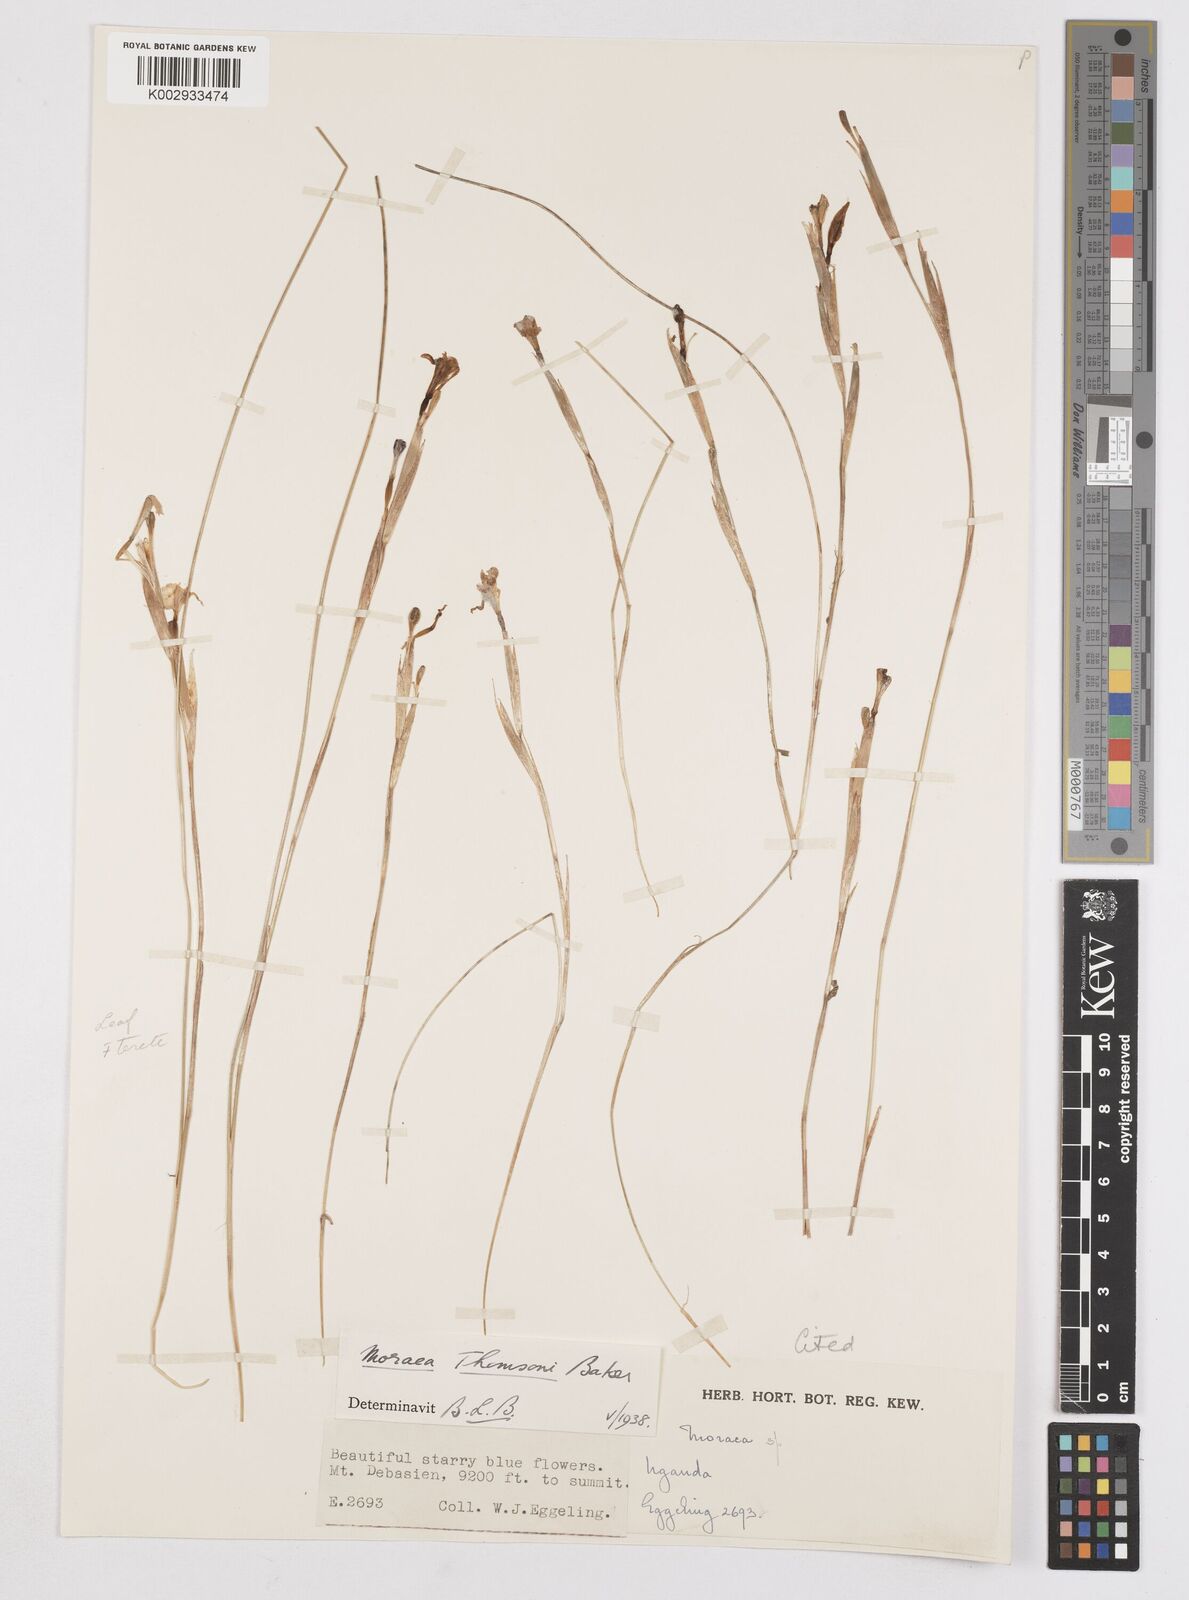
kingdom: Plantae
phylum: Tracheophyta
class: Liliopsida
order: Asparagales
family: Iridaceae
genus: Moraea
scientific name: Moraea stricta
